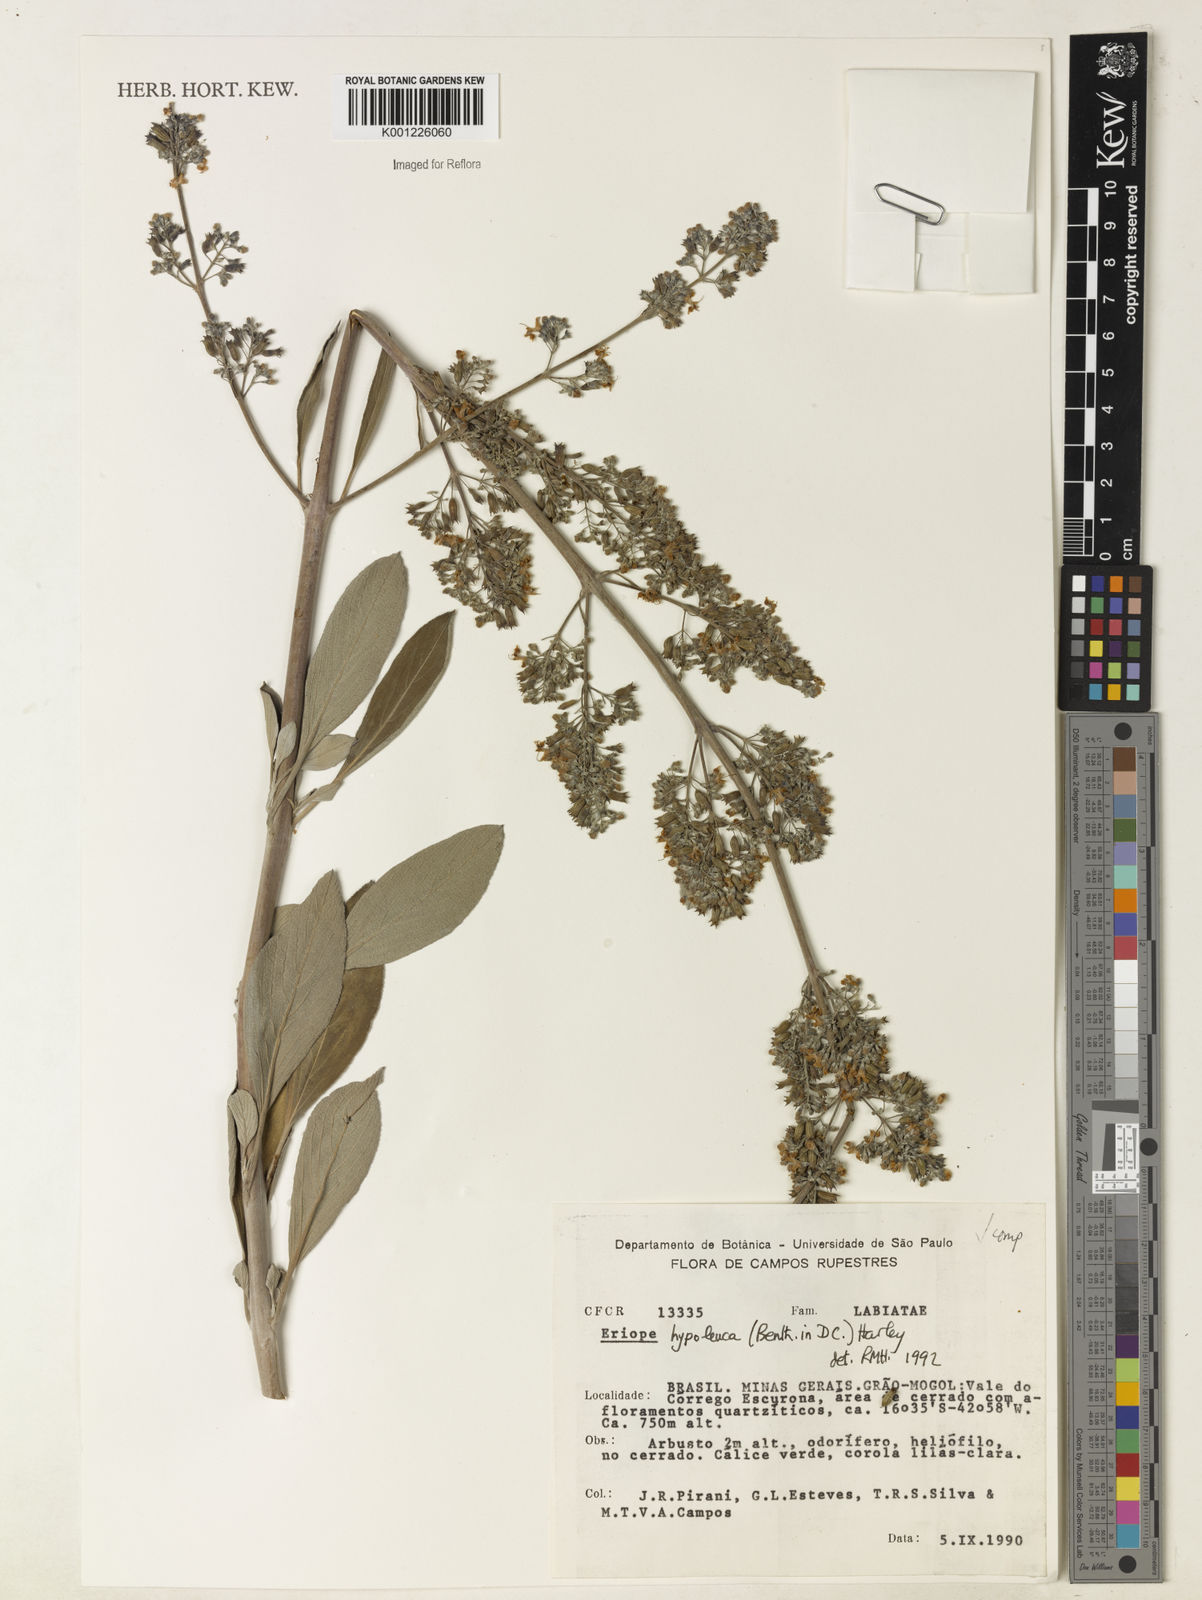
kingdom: Plantae
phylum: Tracheophyta
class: Magnoliopsida
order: Lamiales
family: Lamiaceae
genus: Eriope
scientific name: Eriope hypoleuca
